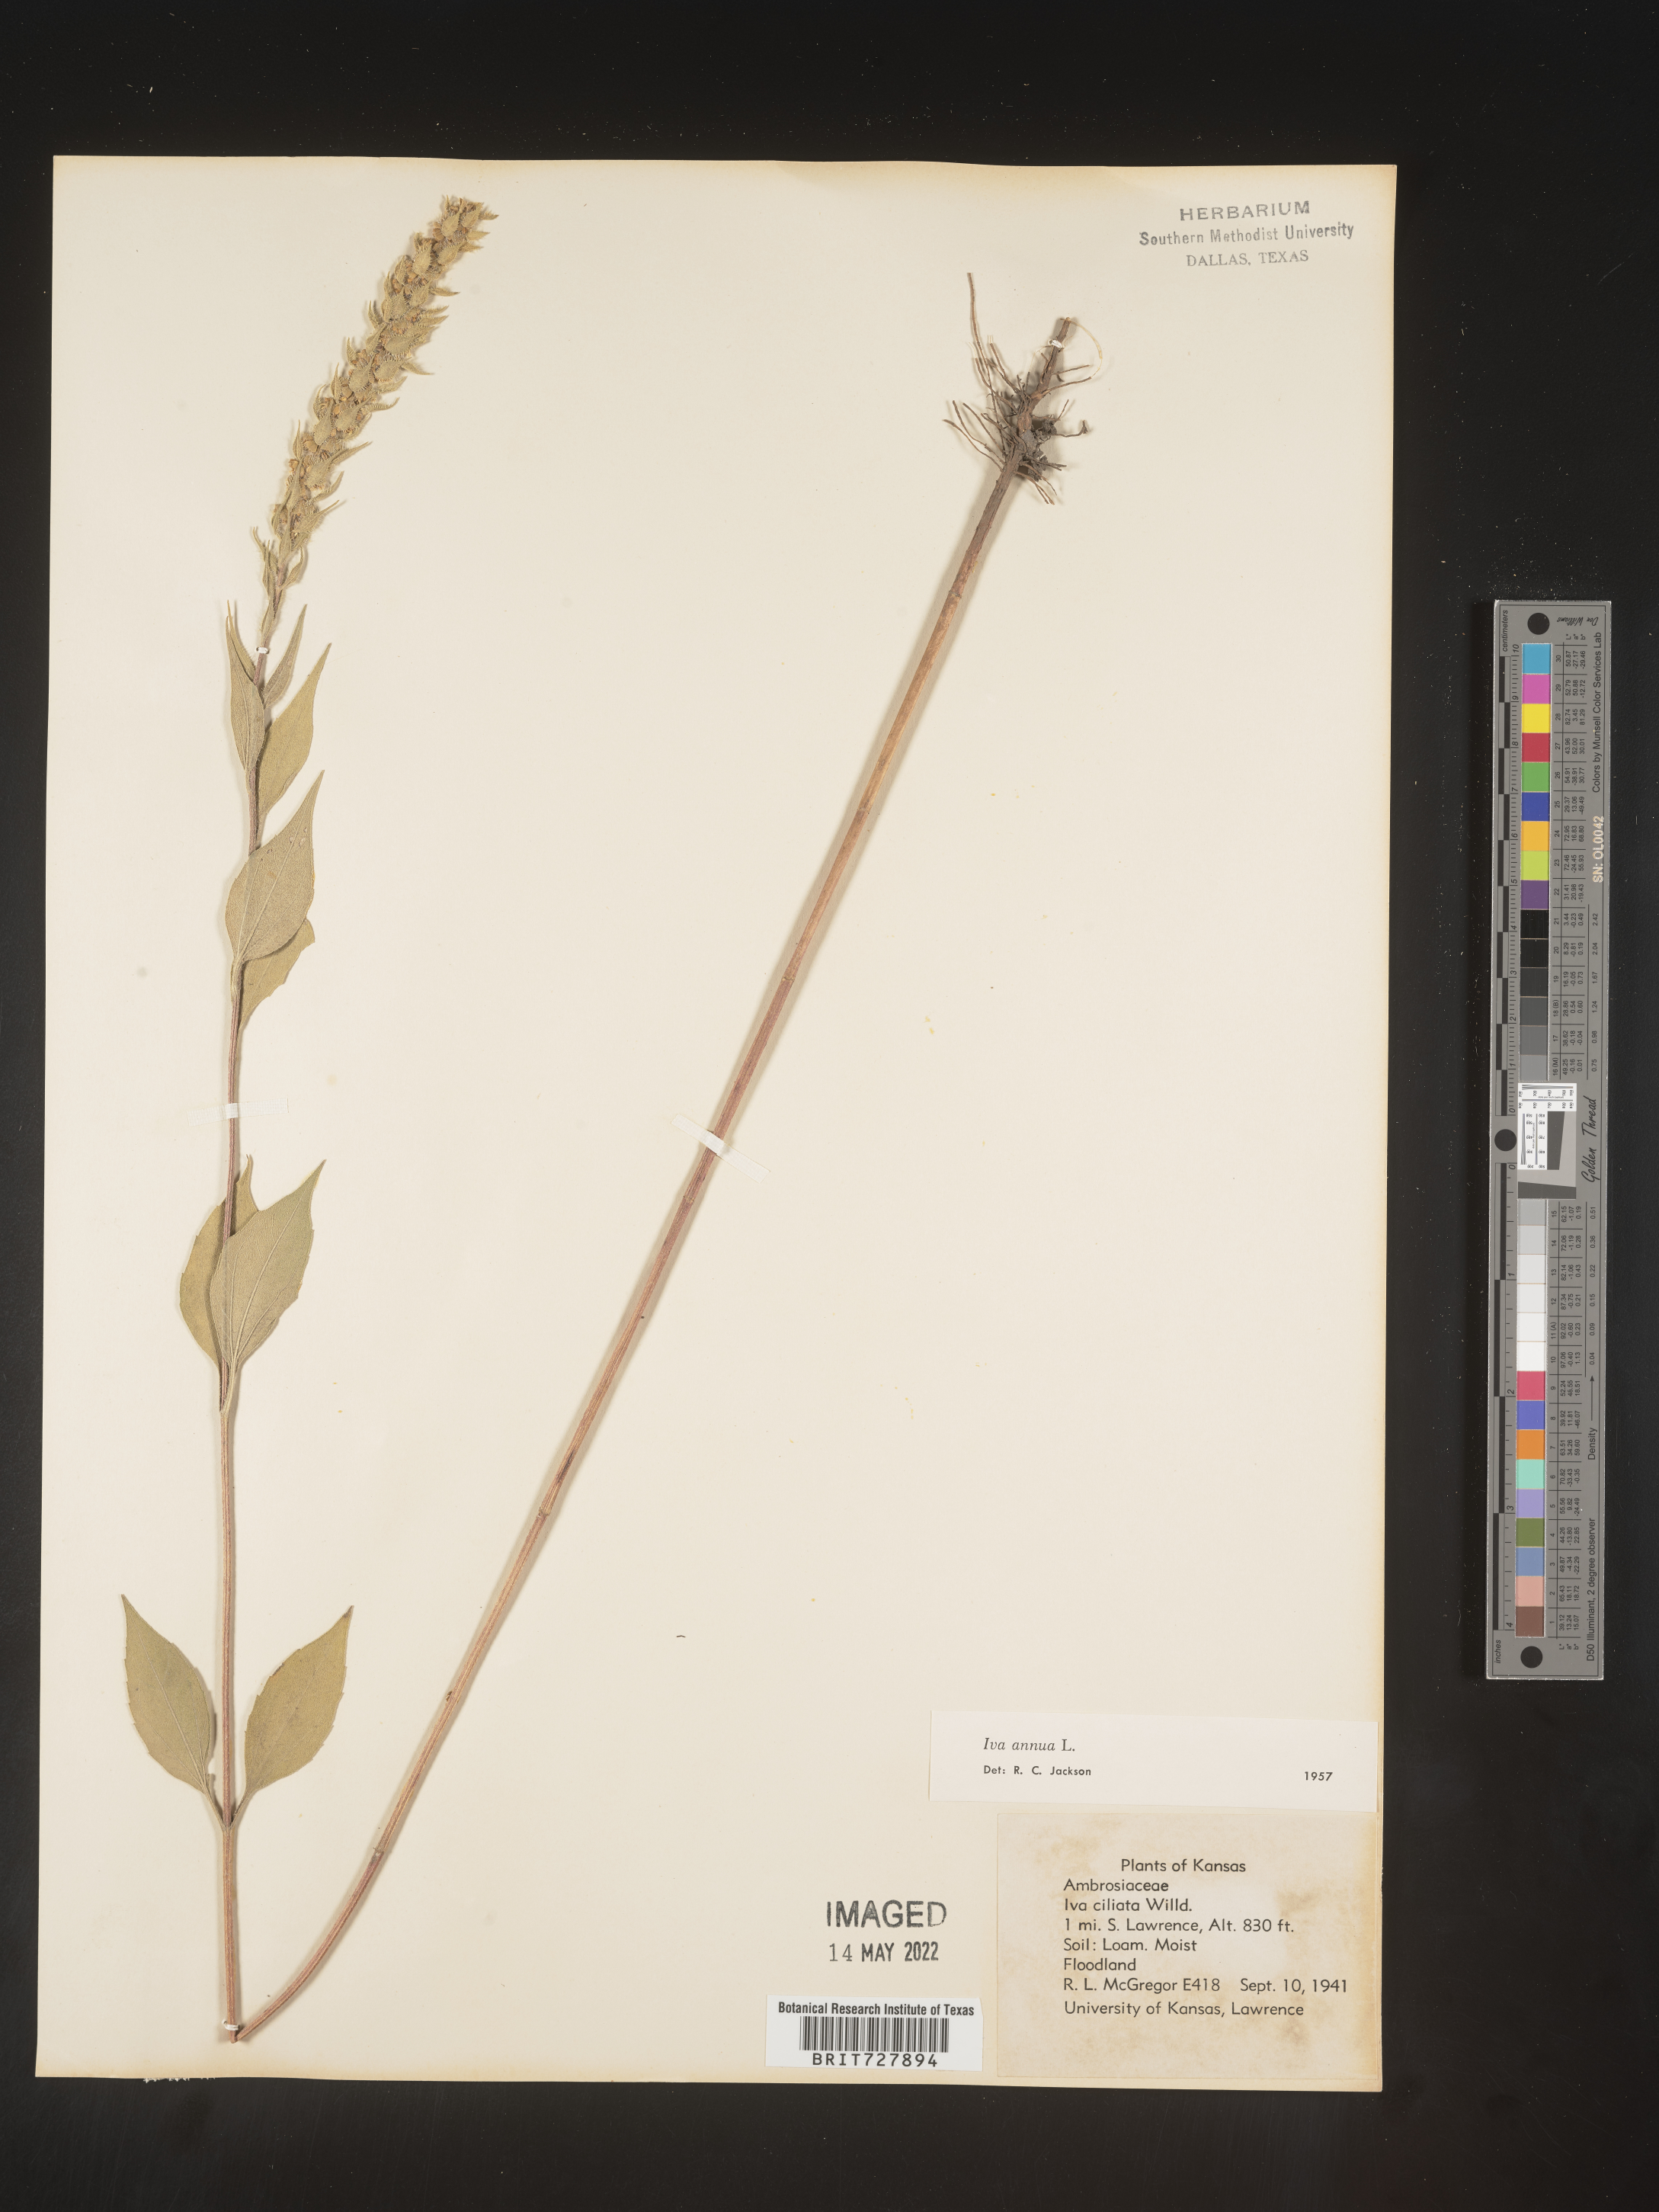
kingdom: Plantae
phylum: Tracheophyta
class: Magnoliopsida
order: Asterales
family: Asteraceae
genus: Iva
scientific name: Iva annua
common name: Marsh-elder
